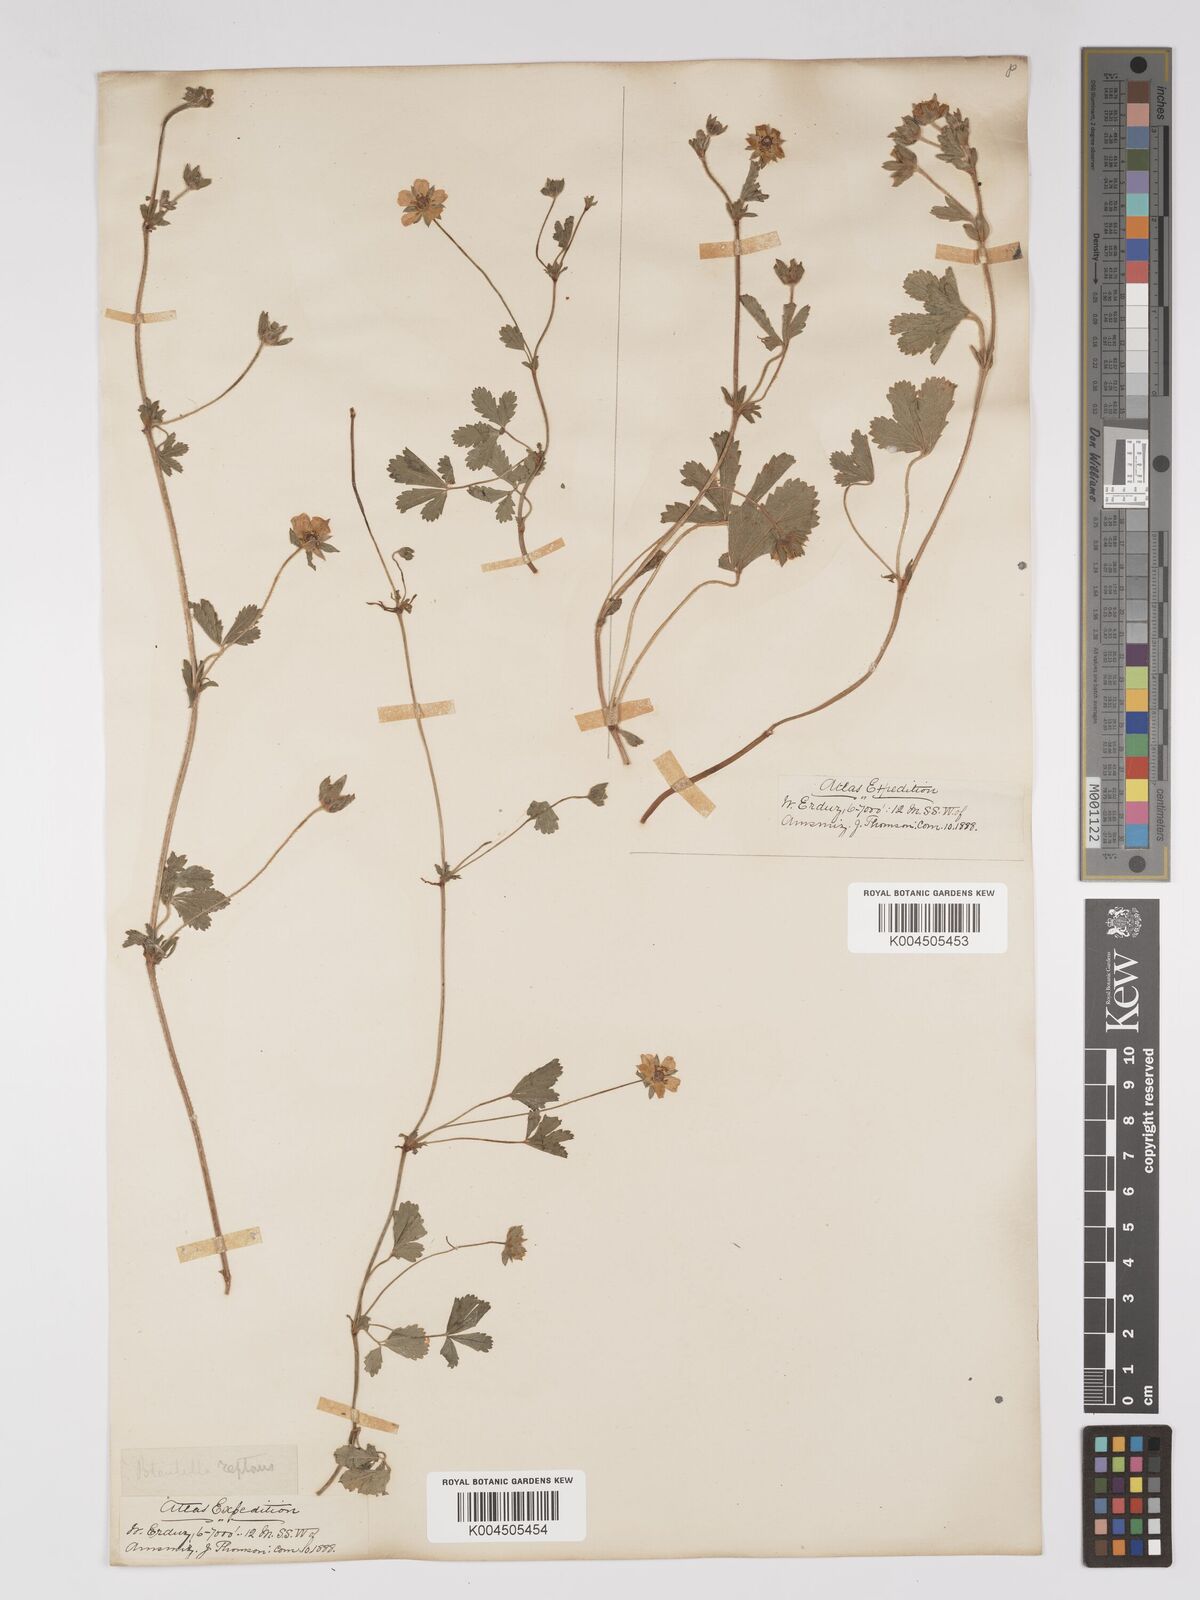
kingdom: Plantae
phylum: Tracheophyta
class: Magnoliopsida
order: Rosales
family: Rosaceae
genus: Potentilla
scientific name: Potentilla reptans
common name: Creeping cinquefoil
